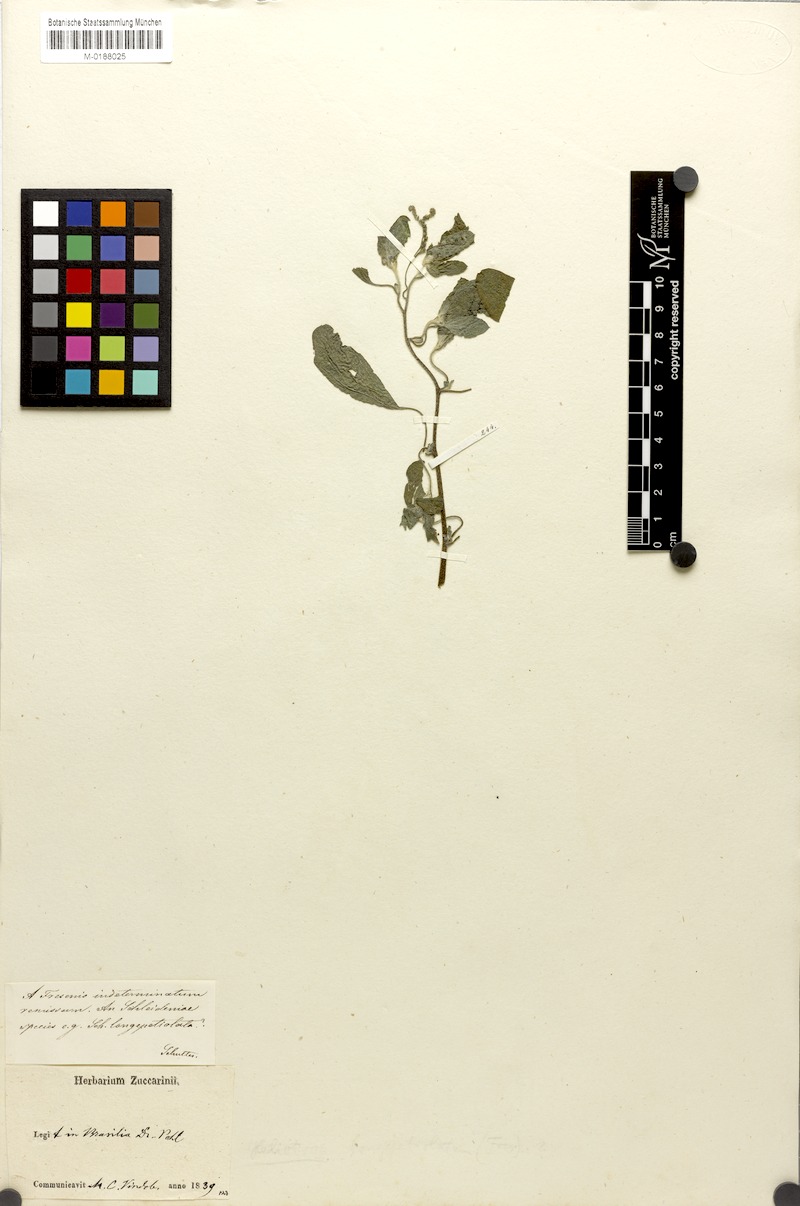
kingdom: Plantae
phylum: Tracheophyta
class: Magnoliopsida
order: Boraginales
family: Heliotropiaceae
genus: Euploca
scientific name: Euploca procumbens
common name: Fourspike heliotrope
